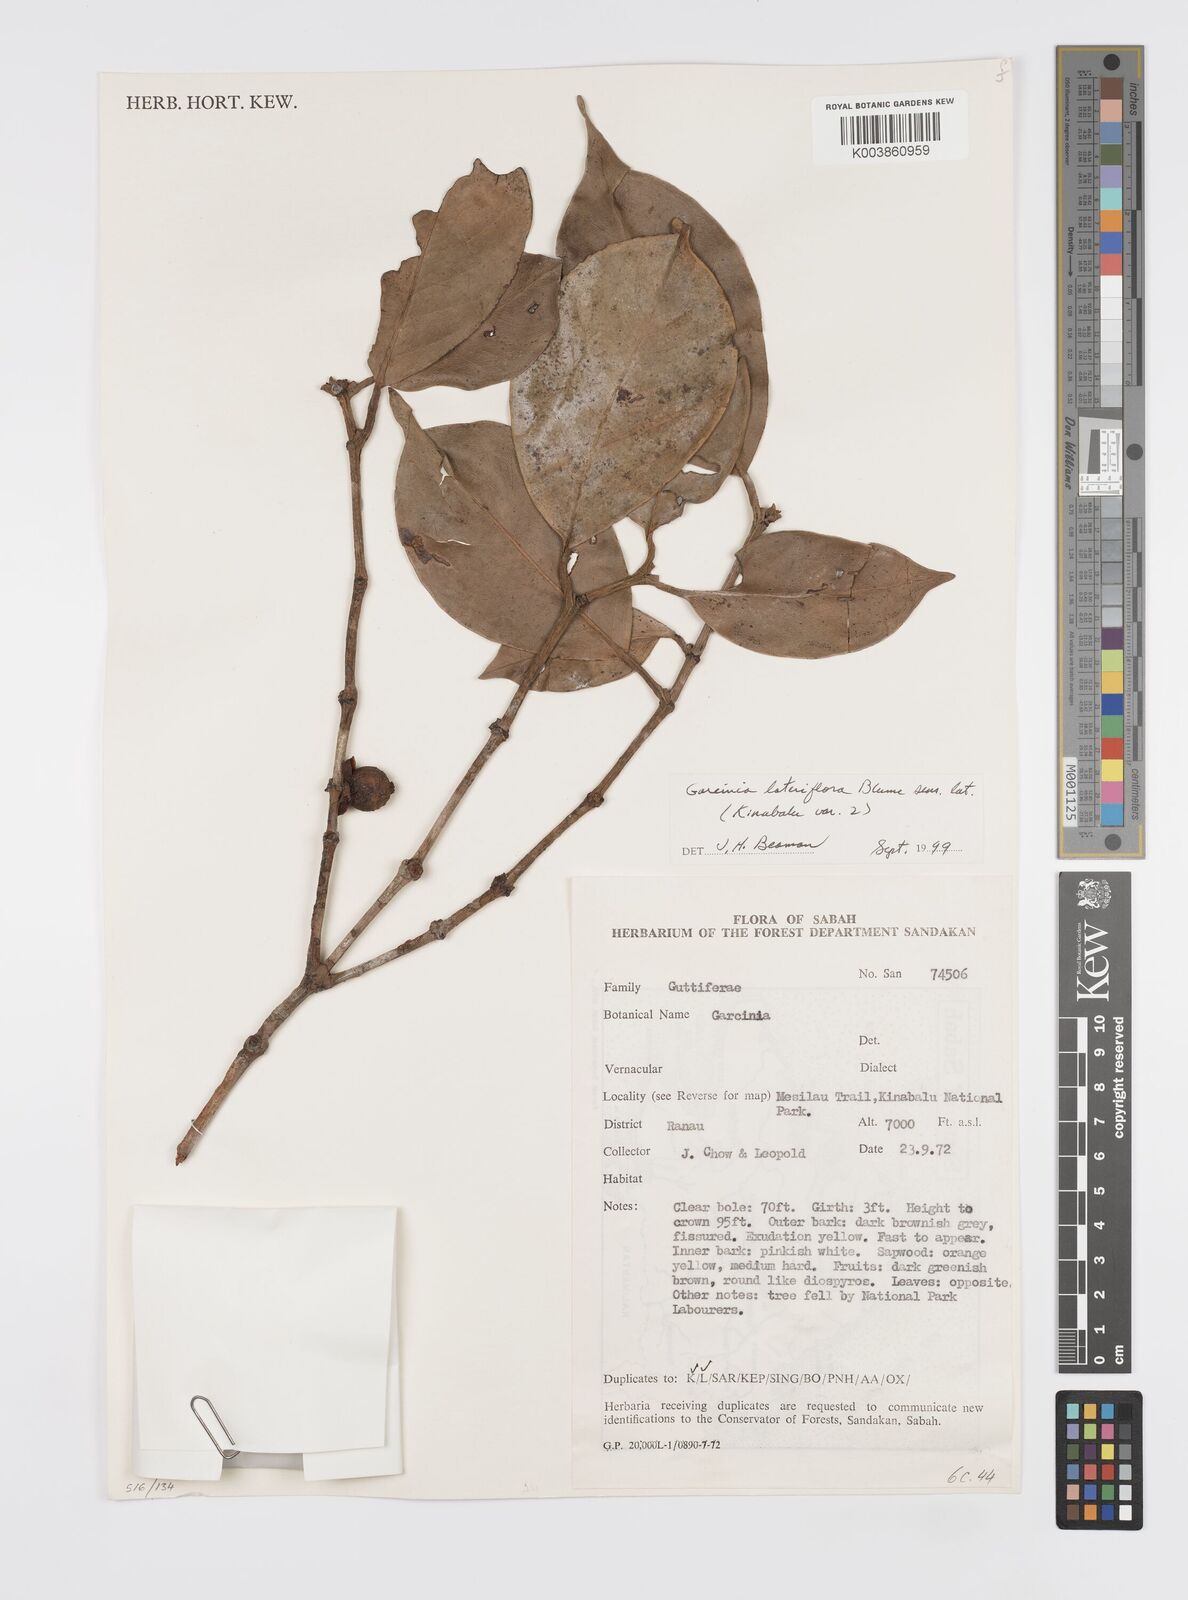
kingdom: Plantae
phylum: Tracheophyta
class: Magnoliopsida
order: Malpighiales
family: Clusiaceae
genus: Garcinia
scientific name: Garcinia lateriflora
